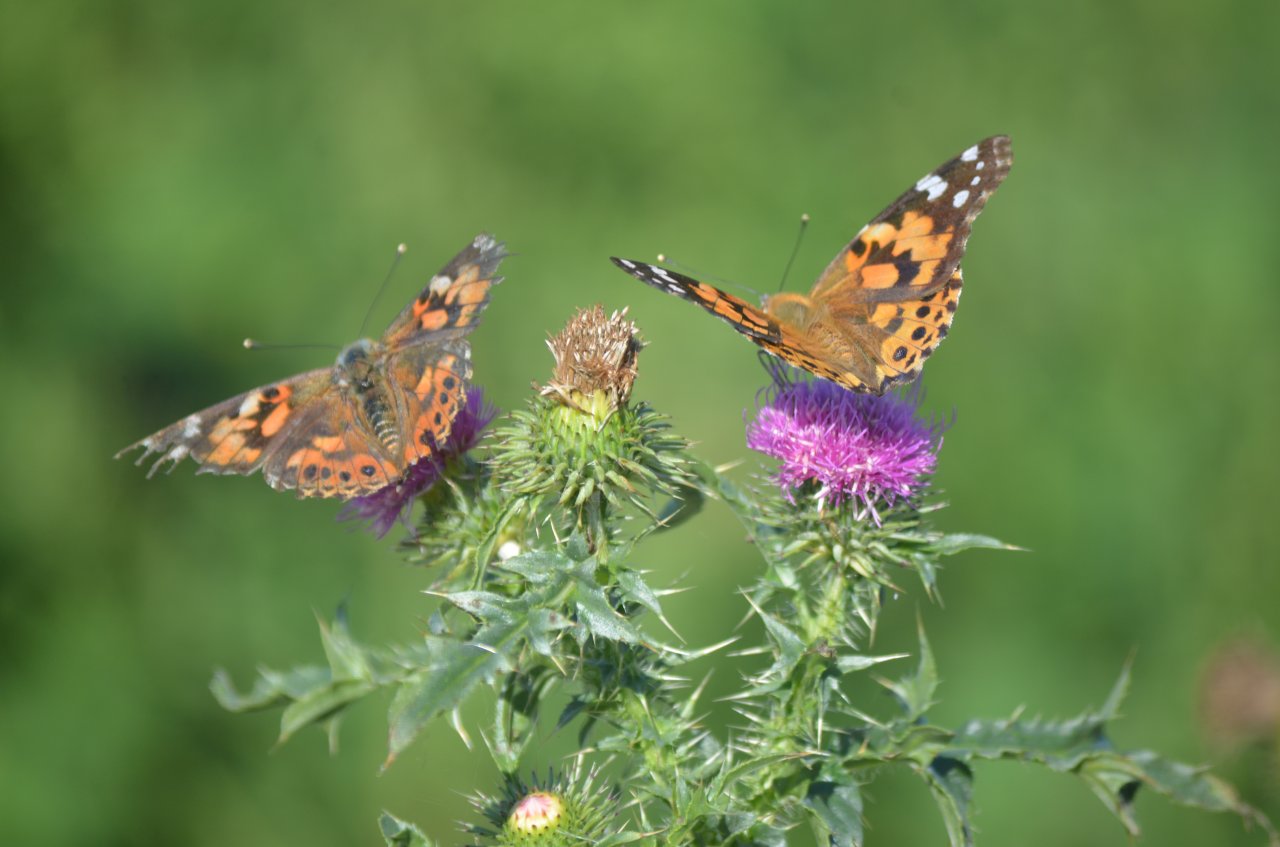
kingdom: Animalia
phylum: Arthropoda
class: Insecta
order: Lepidoptera
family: Nymphalidae
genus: Vanessa
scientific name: Vanessa cardui
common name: Painted Lady
